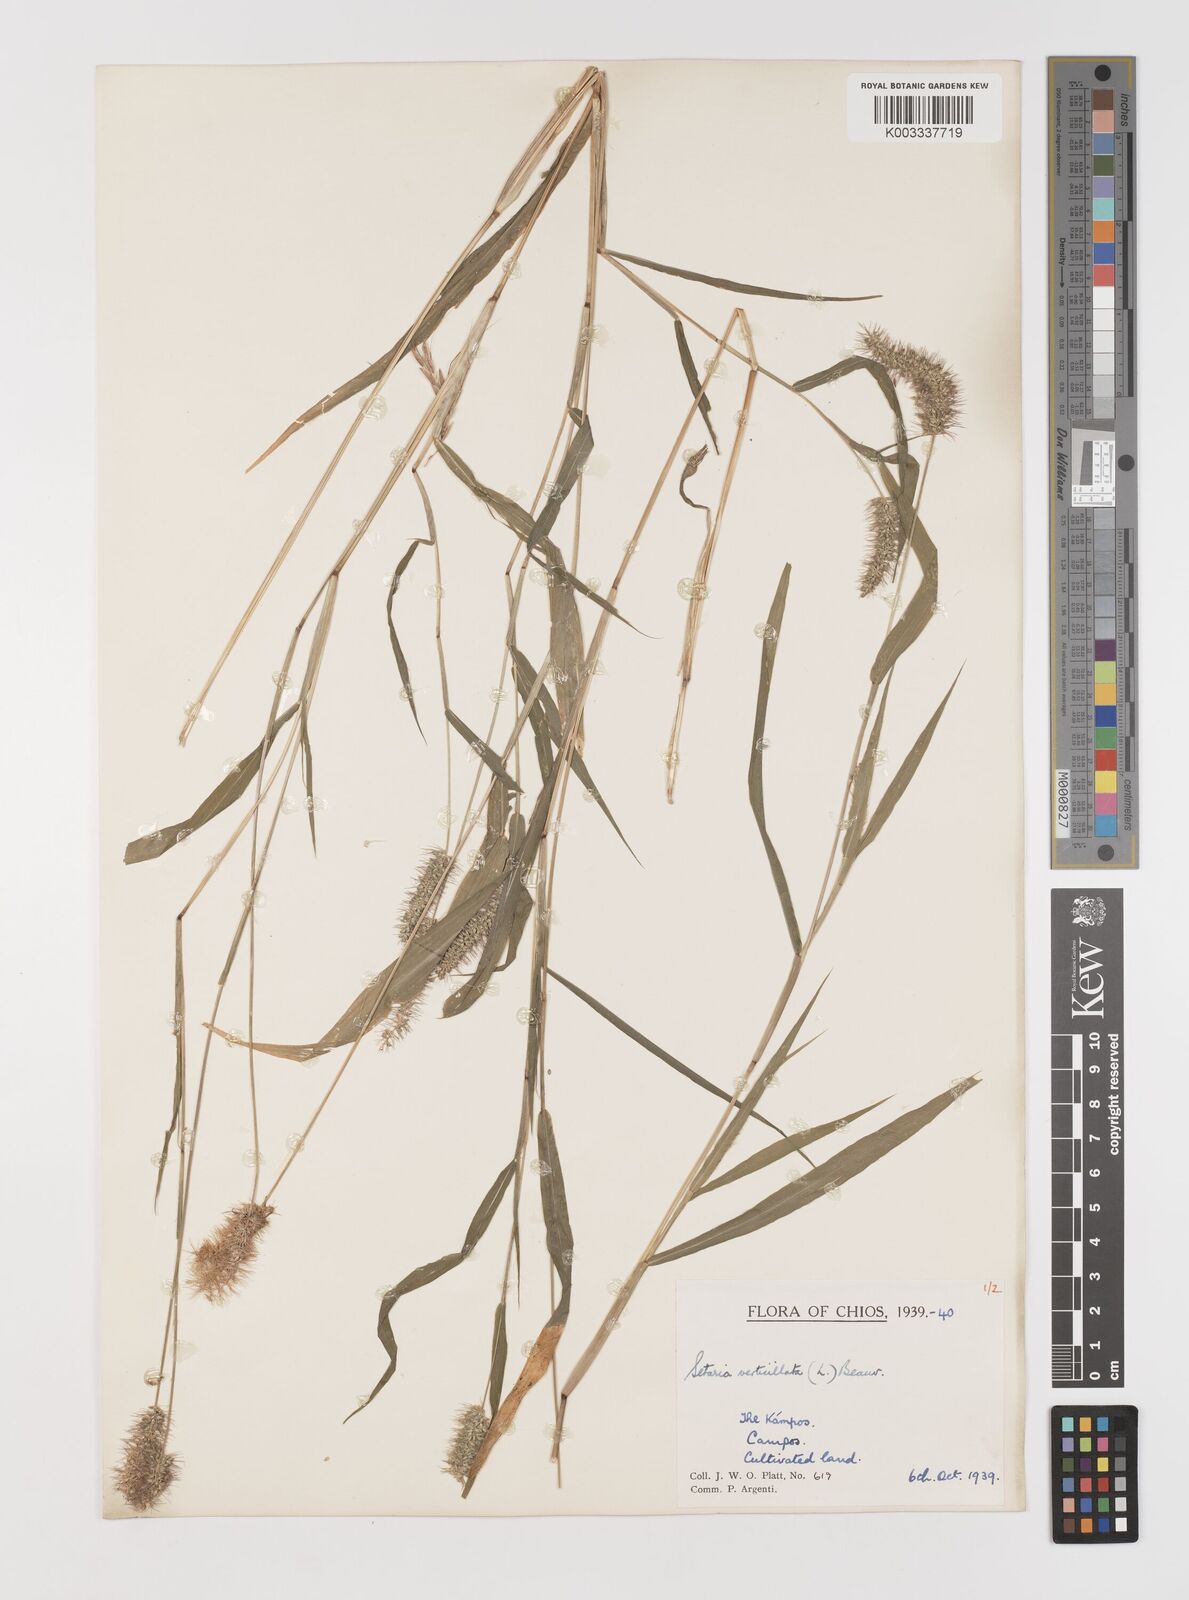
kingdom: Plantae
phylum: Tracheophyta
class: Liliopsida
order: Poales
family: Poaceae
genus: Setaria
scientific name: Setaria verticillata
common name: Hooked bristlegrass
